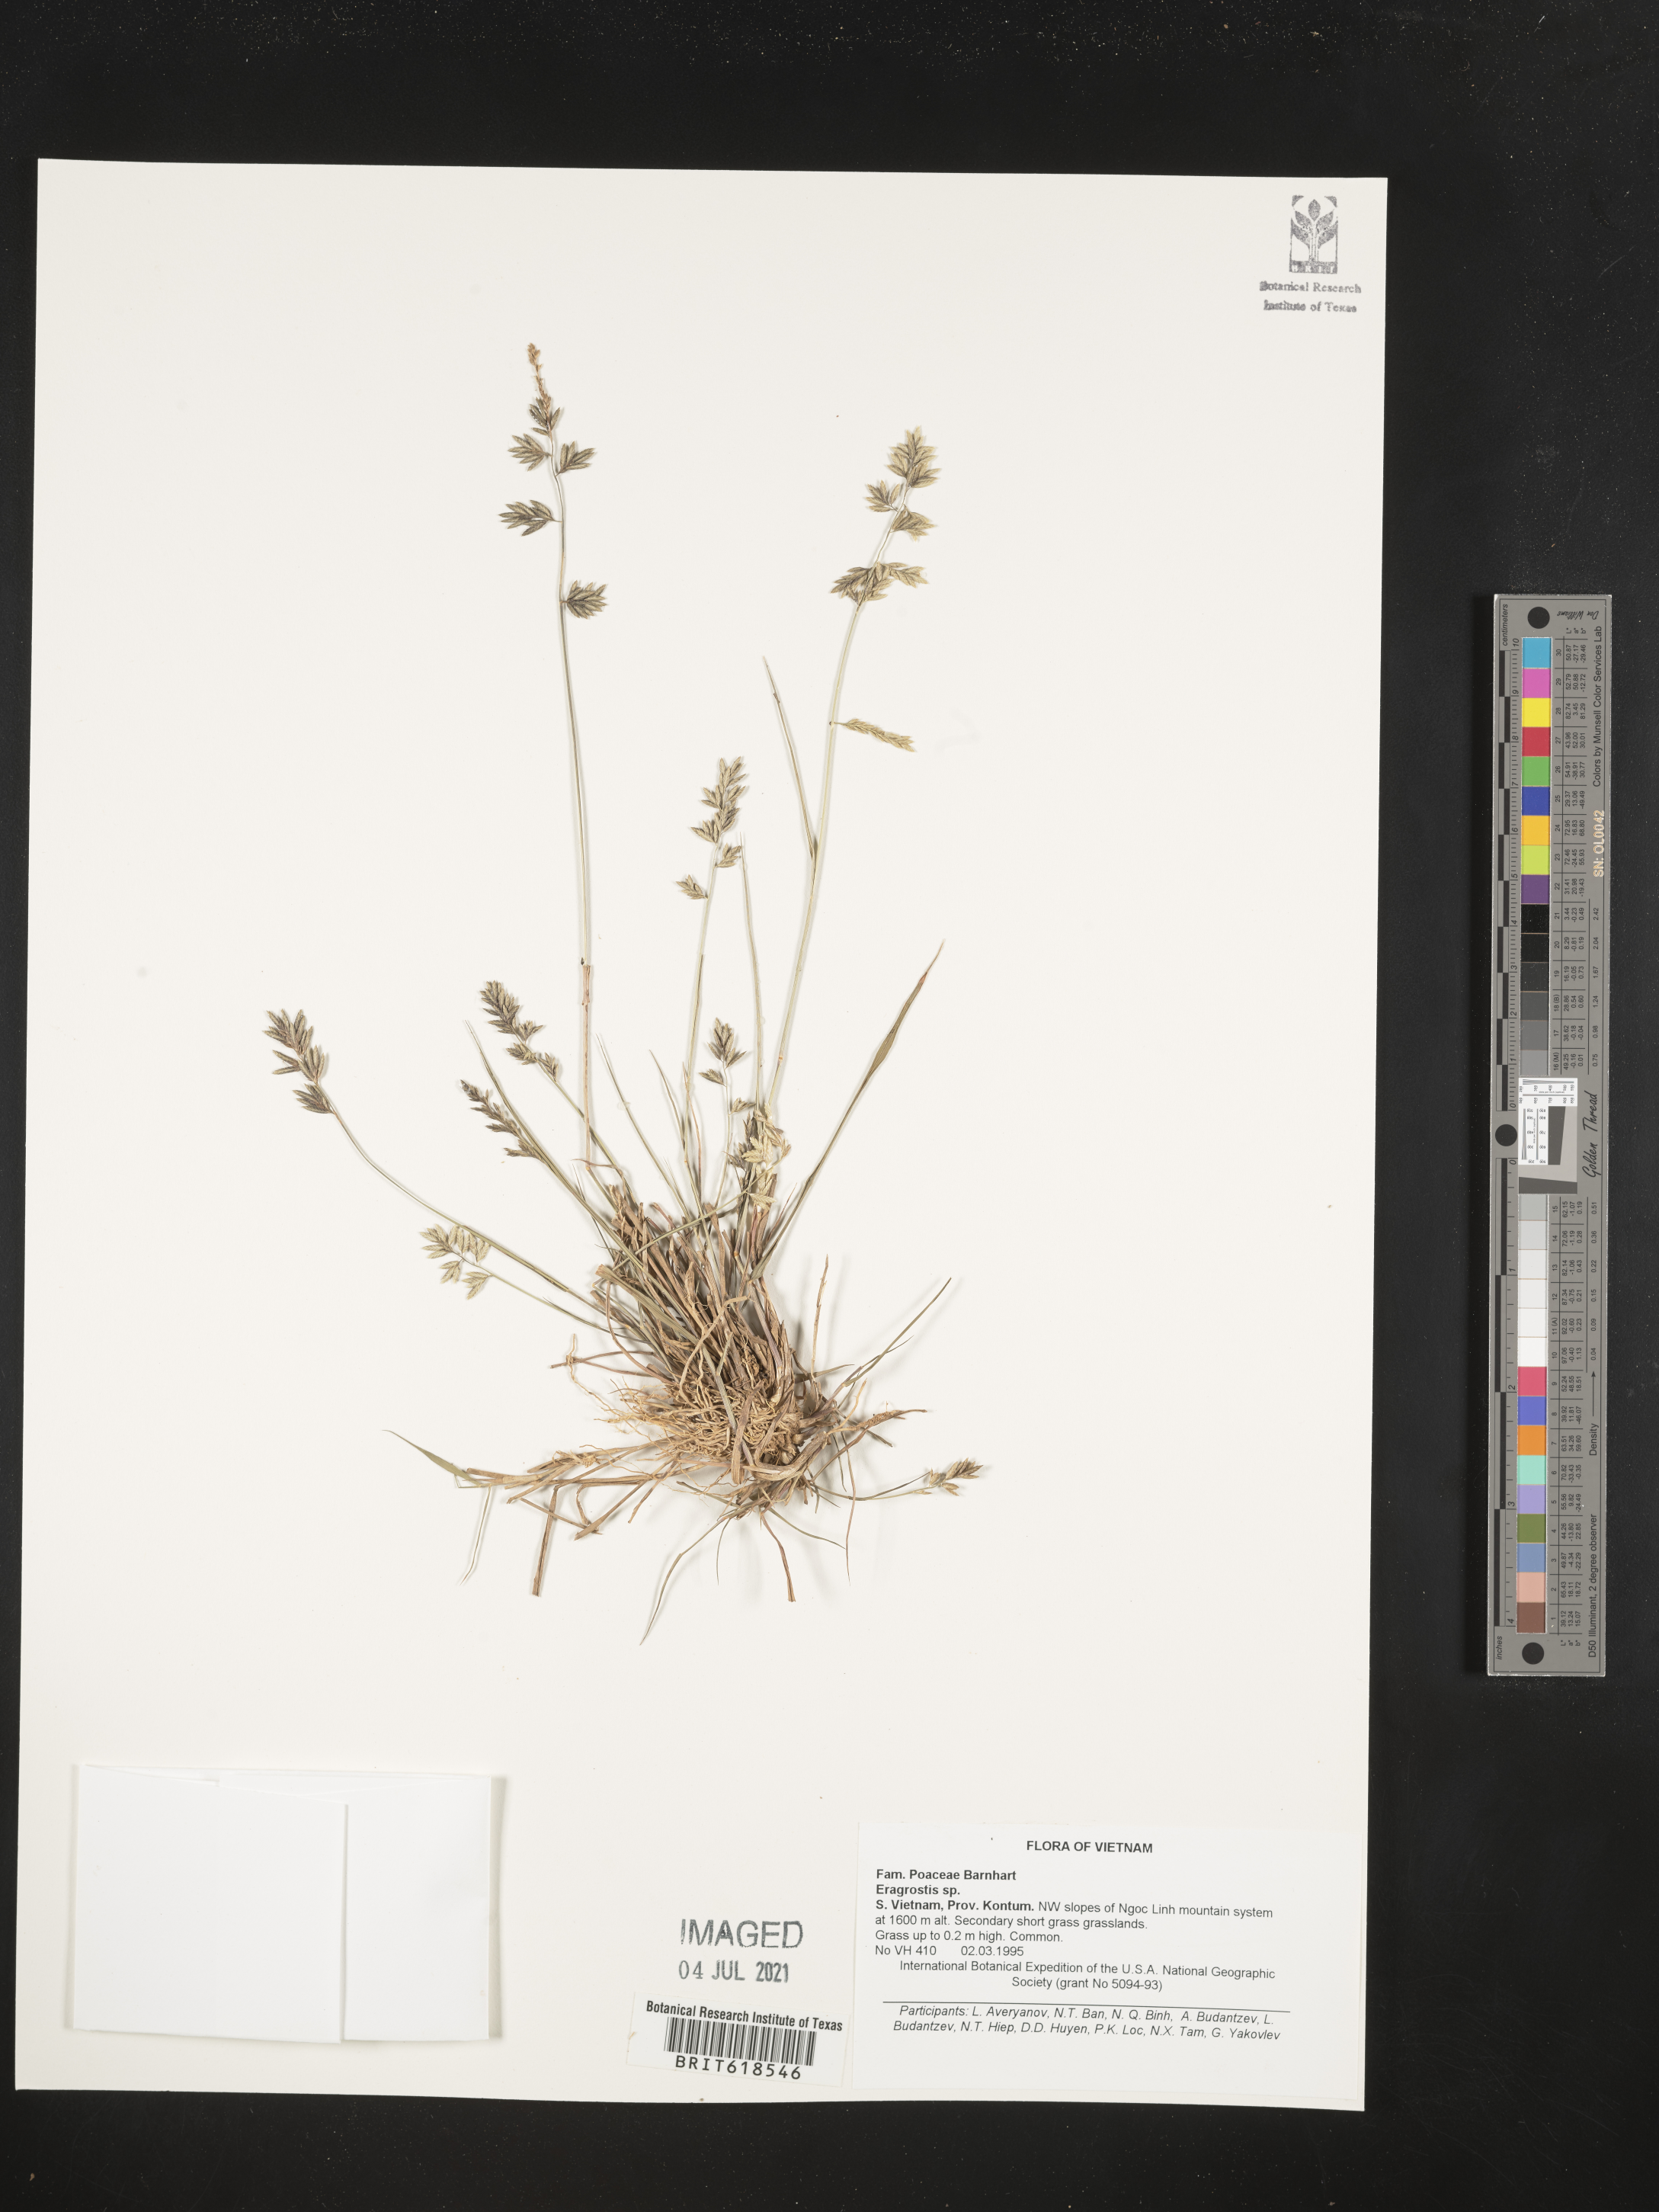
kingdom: Plantae
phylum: Tracheophyta
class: Liliopsida
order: Poales
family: Poaceae
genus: Eragrostis
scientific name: Eragrostis
